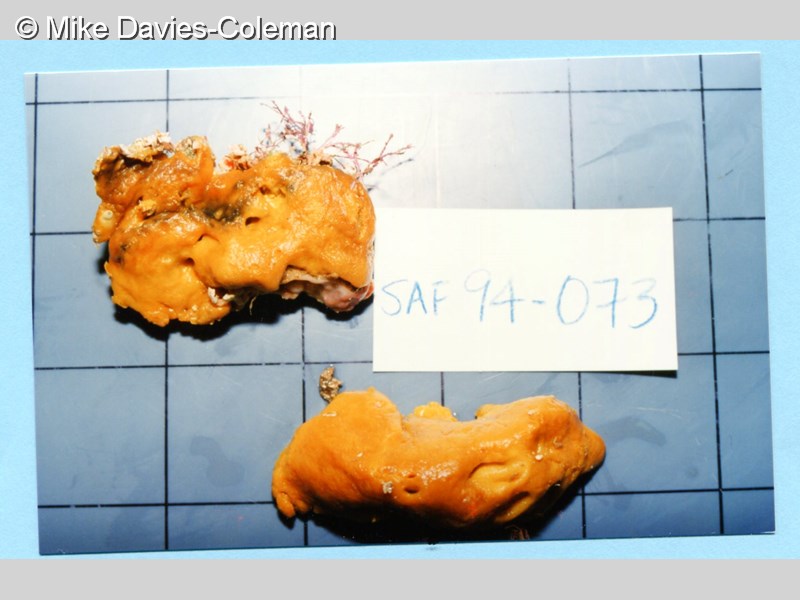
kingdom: Animalia
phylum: Porifera
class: Demospongiae
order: Poecilosclerida
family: Guitarridae
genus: Guitarra
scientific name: Guitarra fimbriata
